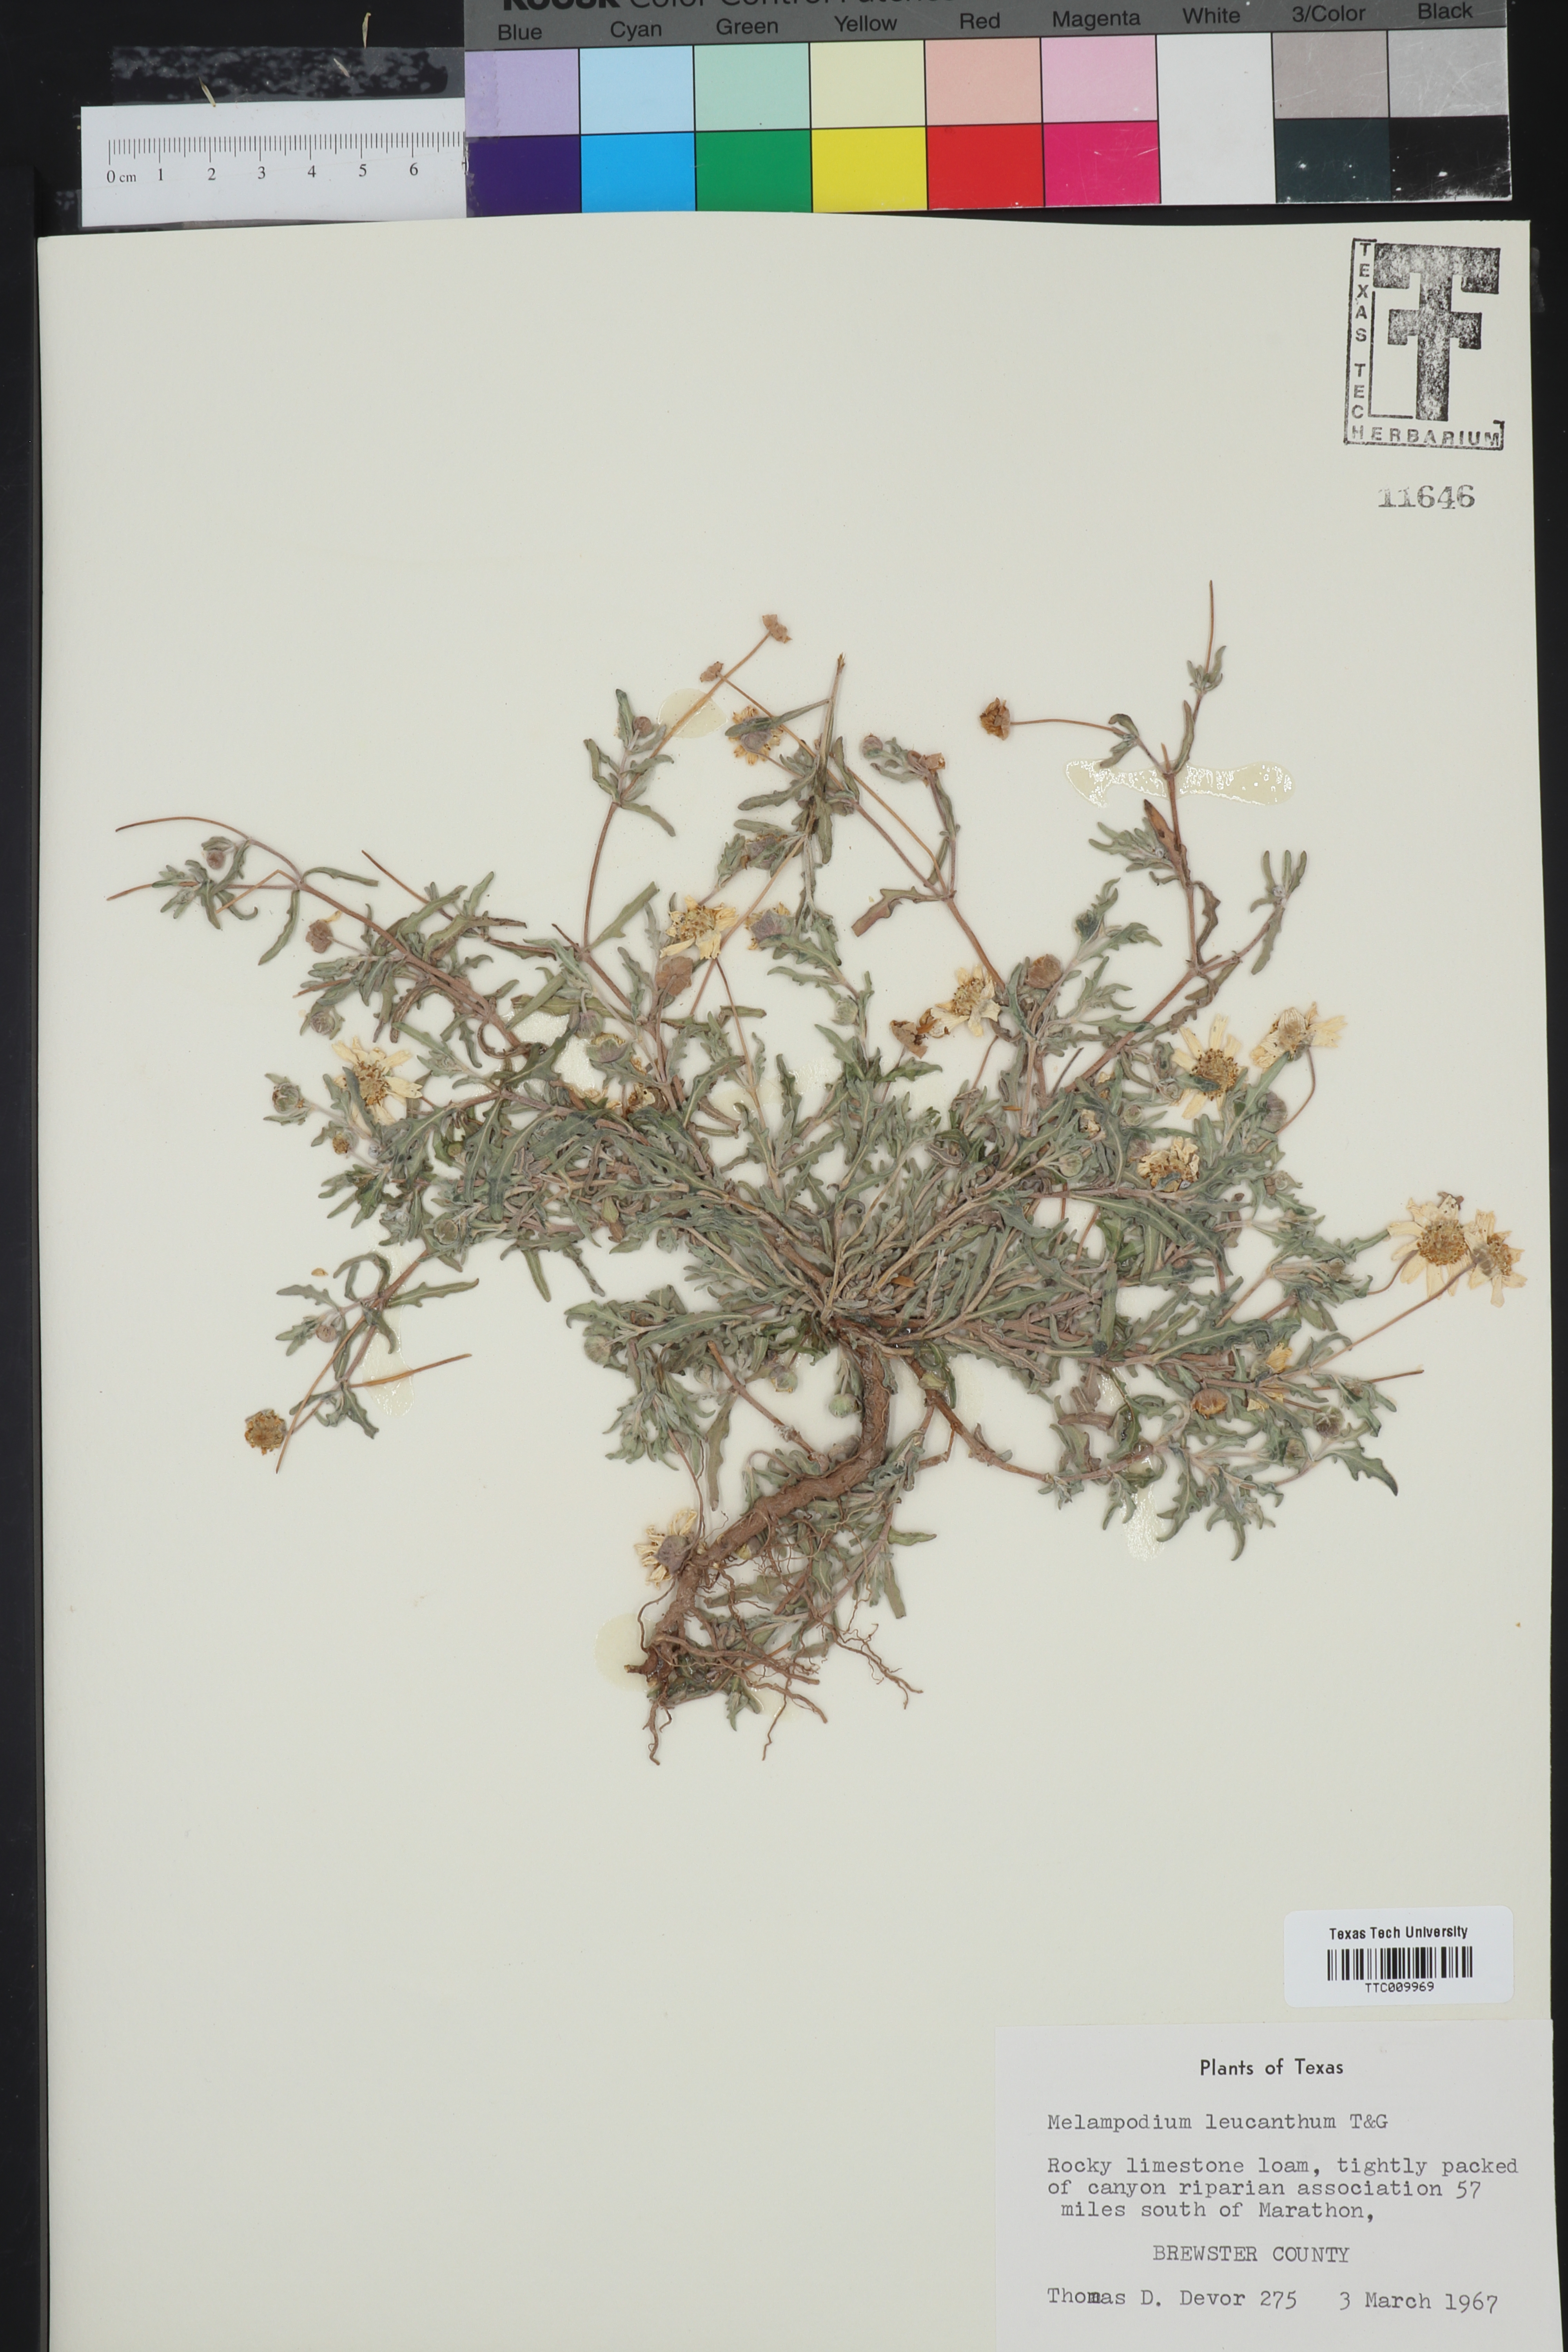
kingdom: Plantae
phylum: Tracheophyta
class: Magnoliopsida
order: Asterales
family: Asteraceae
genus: Melampodium
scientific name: Melampodium leucanthum
